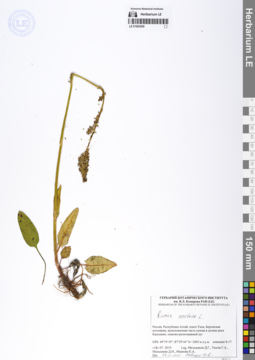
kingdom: Plantae
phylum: Tracheophyta
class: Magnoliopsida
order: Caryophyllales
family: Polygonaceae
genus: Rumex
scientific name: Rumex acetosa
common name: Garden sorrel
